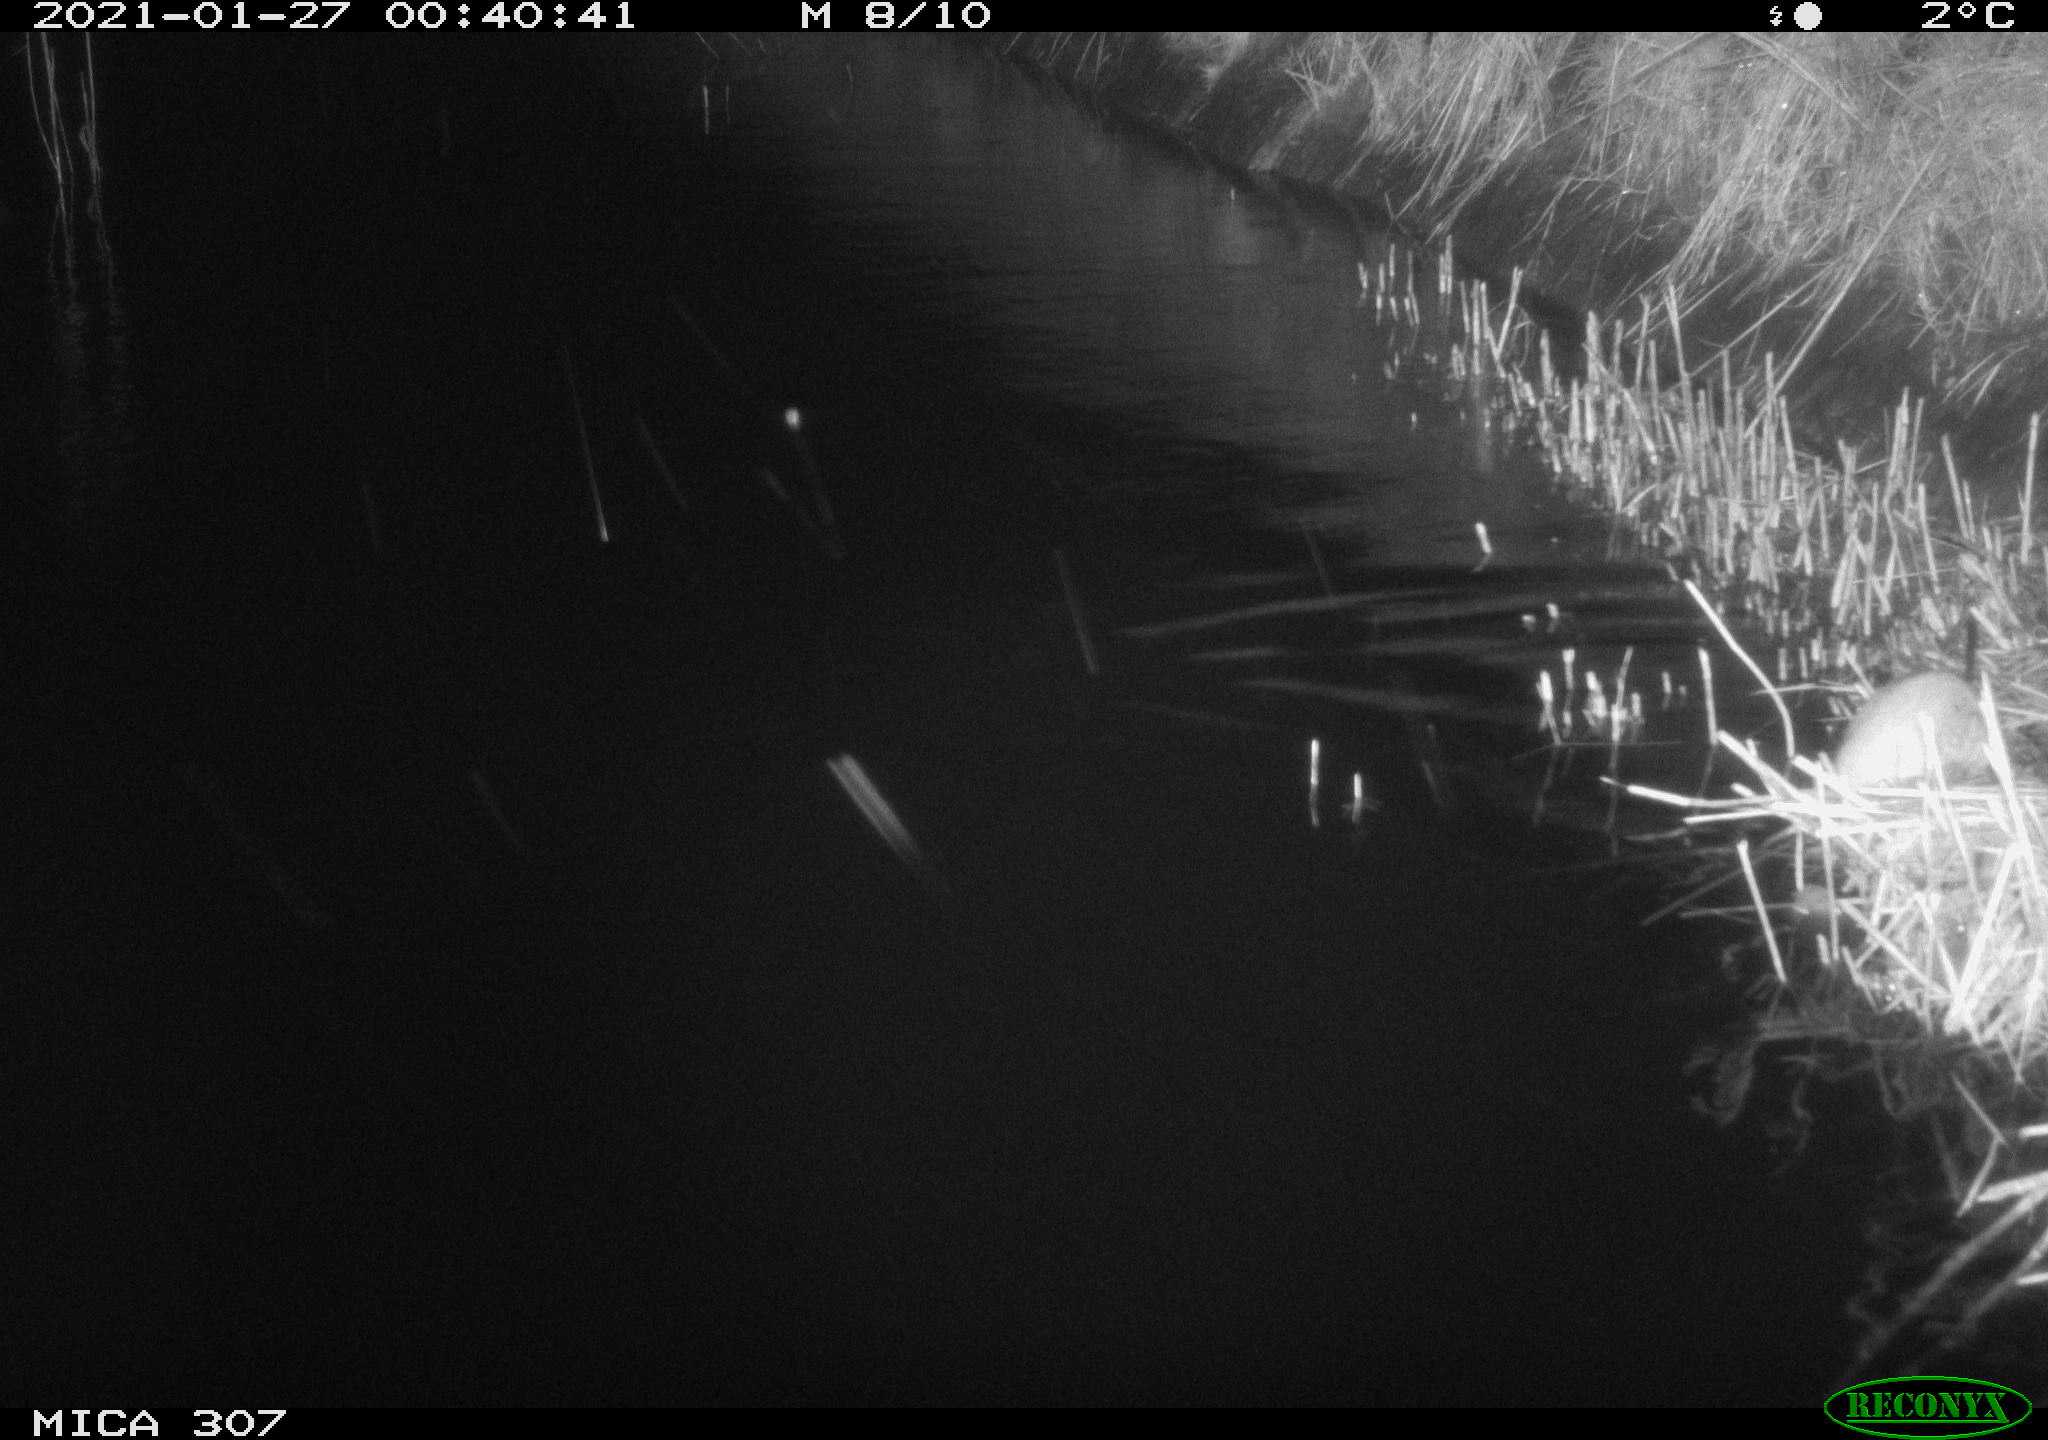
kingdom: Animalia
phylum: Chordata
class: Mammalia
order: Rodentia
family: Muridae
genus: Rattus
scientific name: Rattus norvegicus
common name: Brown rat
